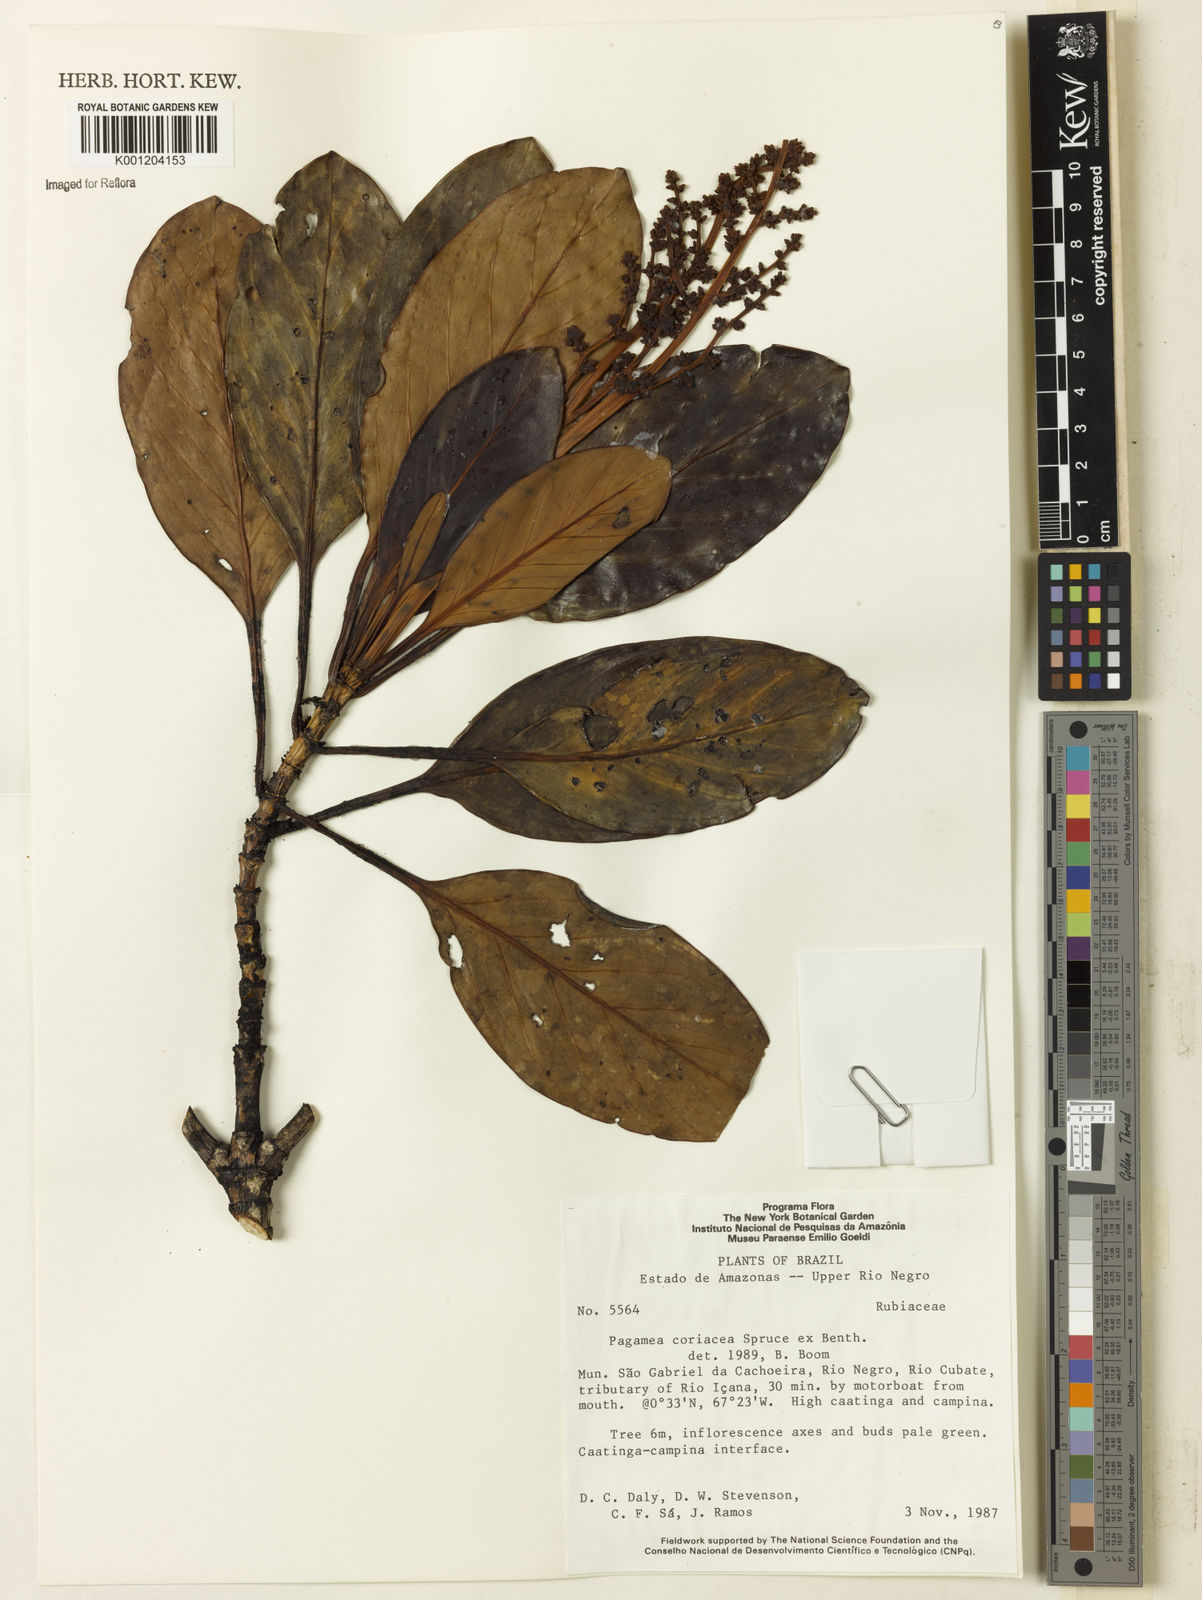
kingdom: Plantae
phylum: Tracheophyta
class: Magnoliopsida
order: Gentianales
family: Rubiaceae
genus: Pagamea
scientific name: Pagamea coriacea
